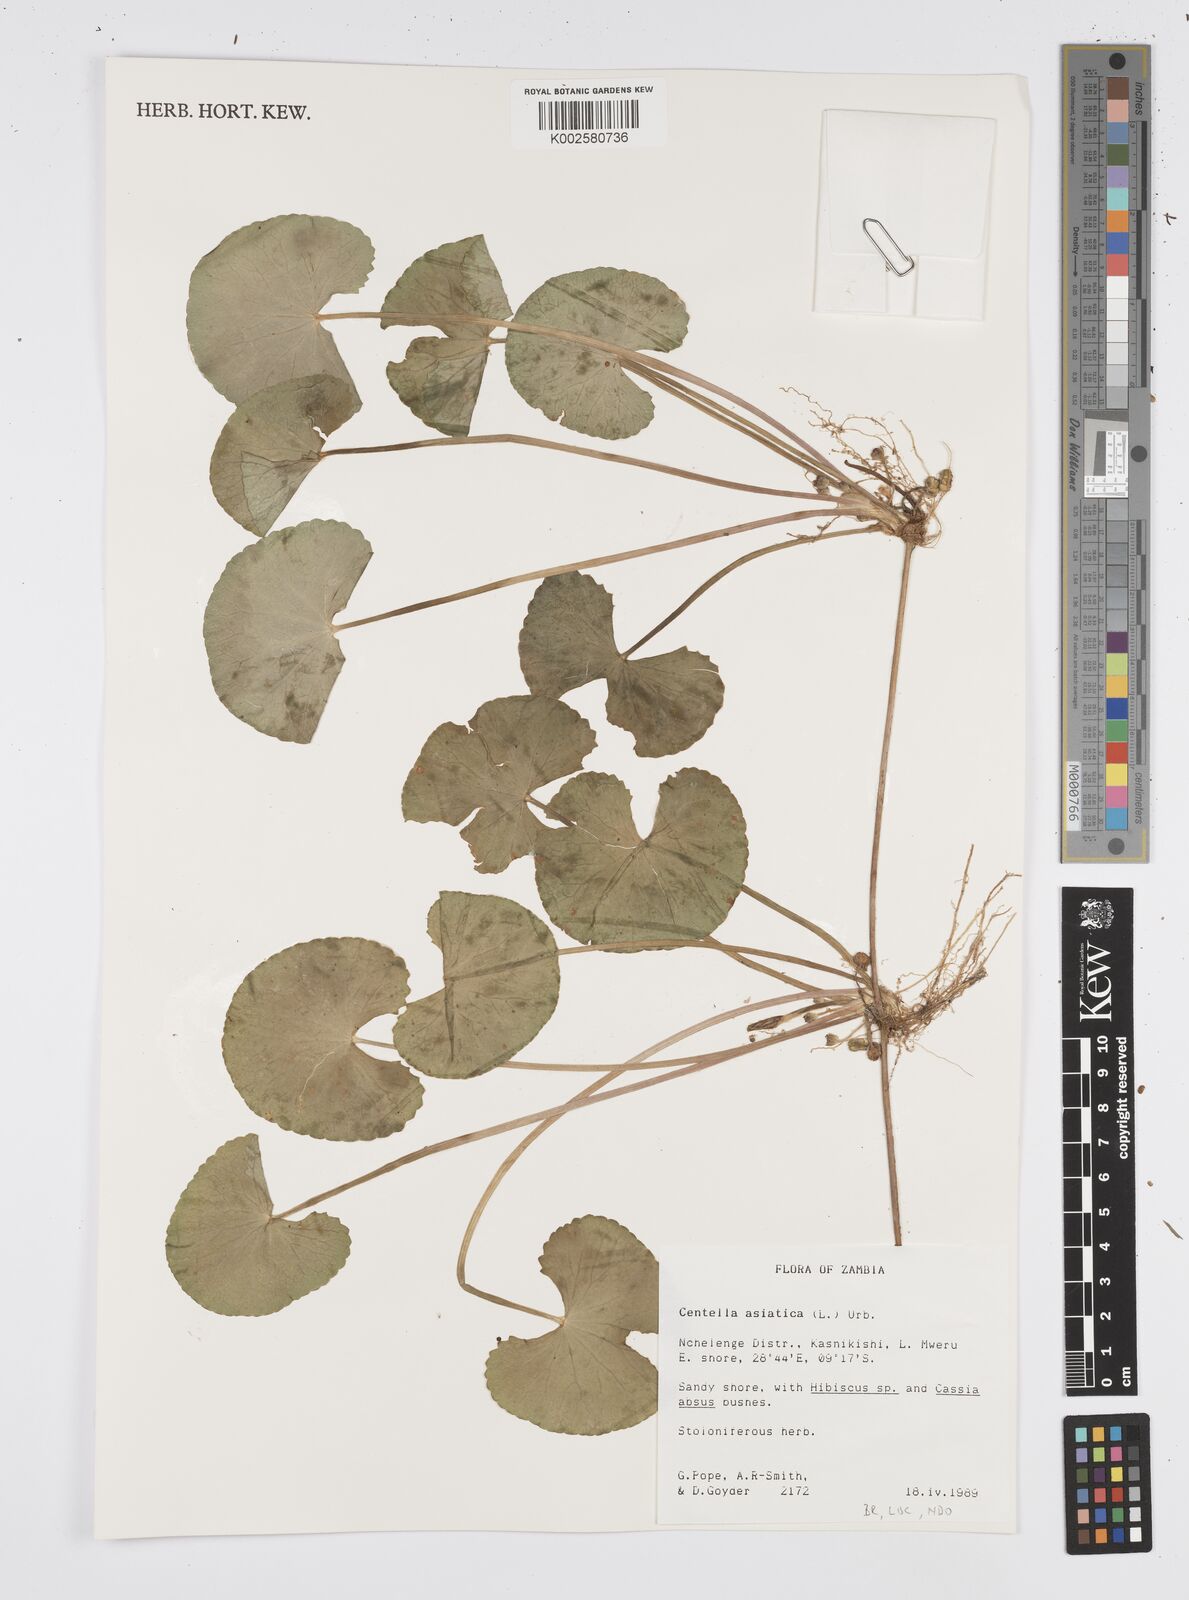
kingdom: Plantae
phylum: Tracheophyta
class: Magnoliopsida
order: Apiales
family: Apiaceae
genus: Centella
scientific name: Centella asiatica
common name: Spadeleaf
